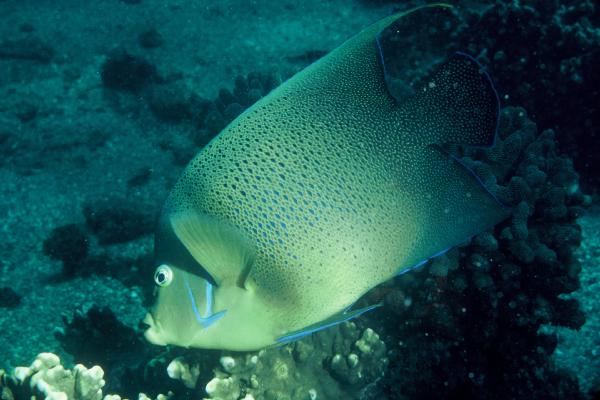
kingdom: Animalia
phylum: Chordata
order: Perciformes
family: Pomacanthidae
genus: Pomacanthus
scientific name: Pomacanthus semicirculatus
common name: Semicircle angelfish
